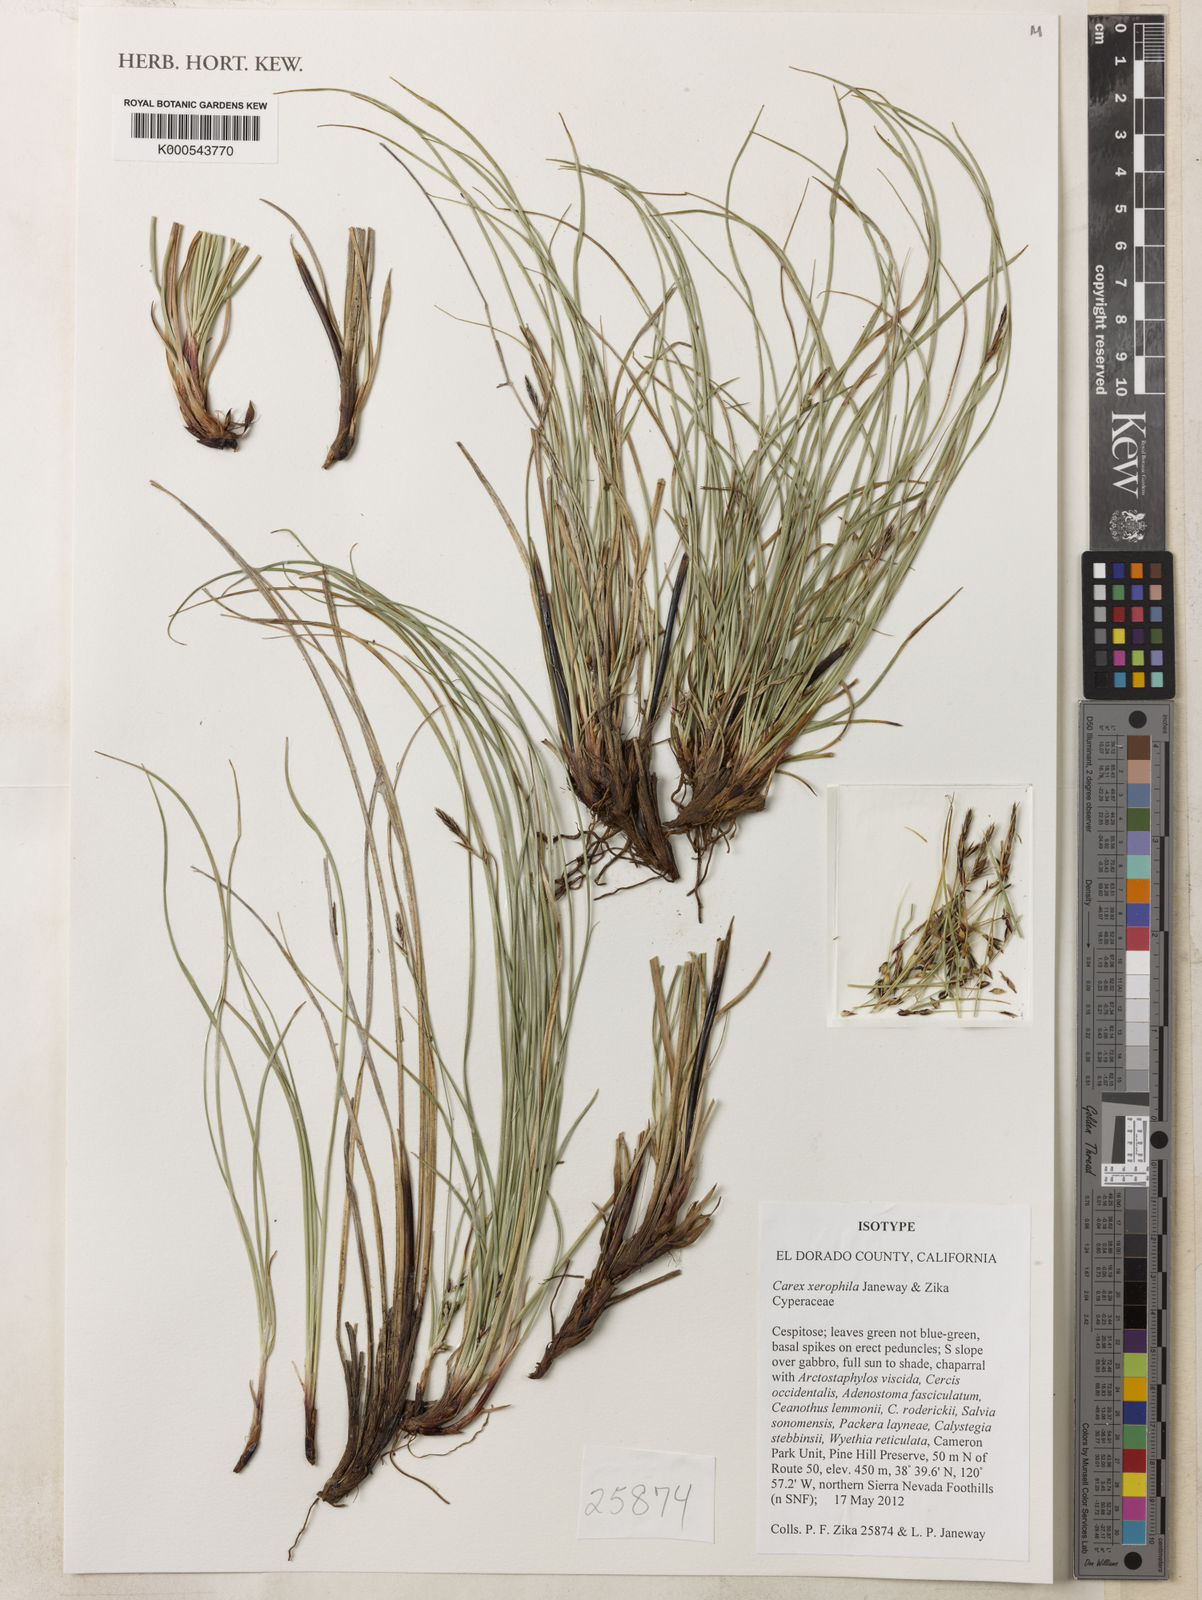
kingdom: Plantae
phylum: Tracheophyta
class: Liliopsida
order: Poales
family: Cyperaceae
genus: Carex
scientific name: Carex xerophila
